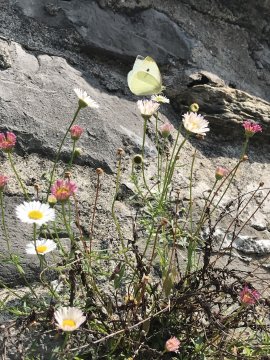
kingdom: Animalia
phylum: Arthropoda
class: Insecta
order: Lepidoptera
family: Pieridae
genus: Pieris
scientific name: Pieris rapae
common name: Cabbage White
